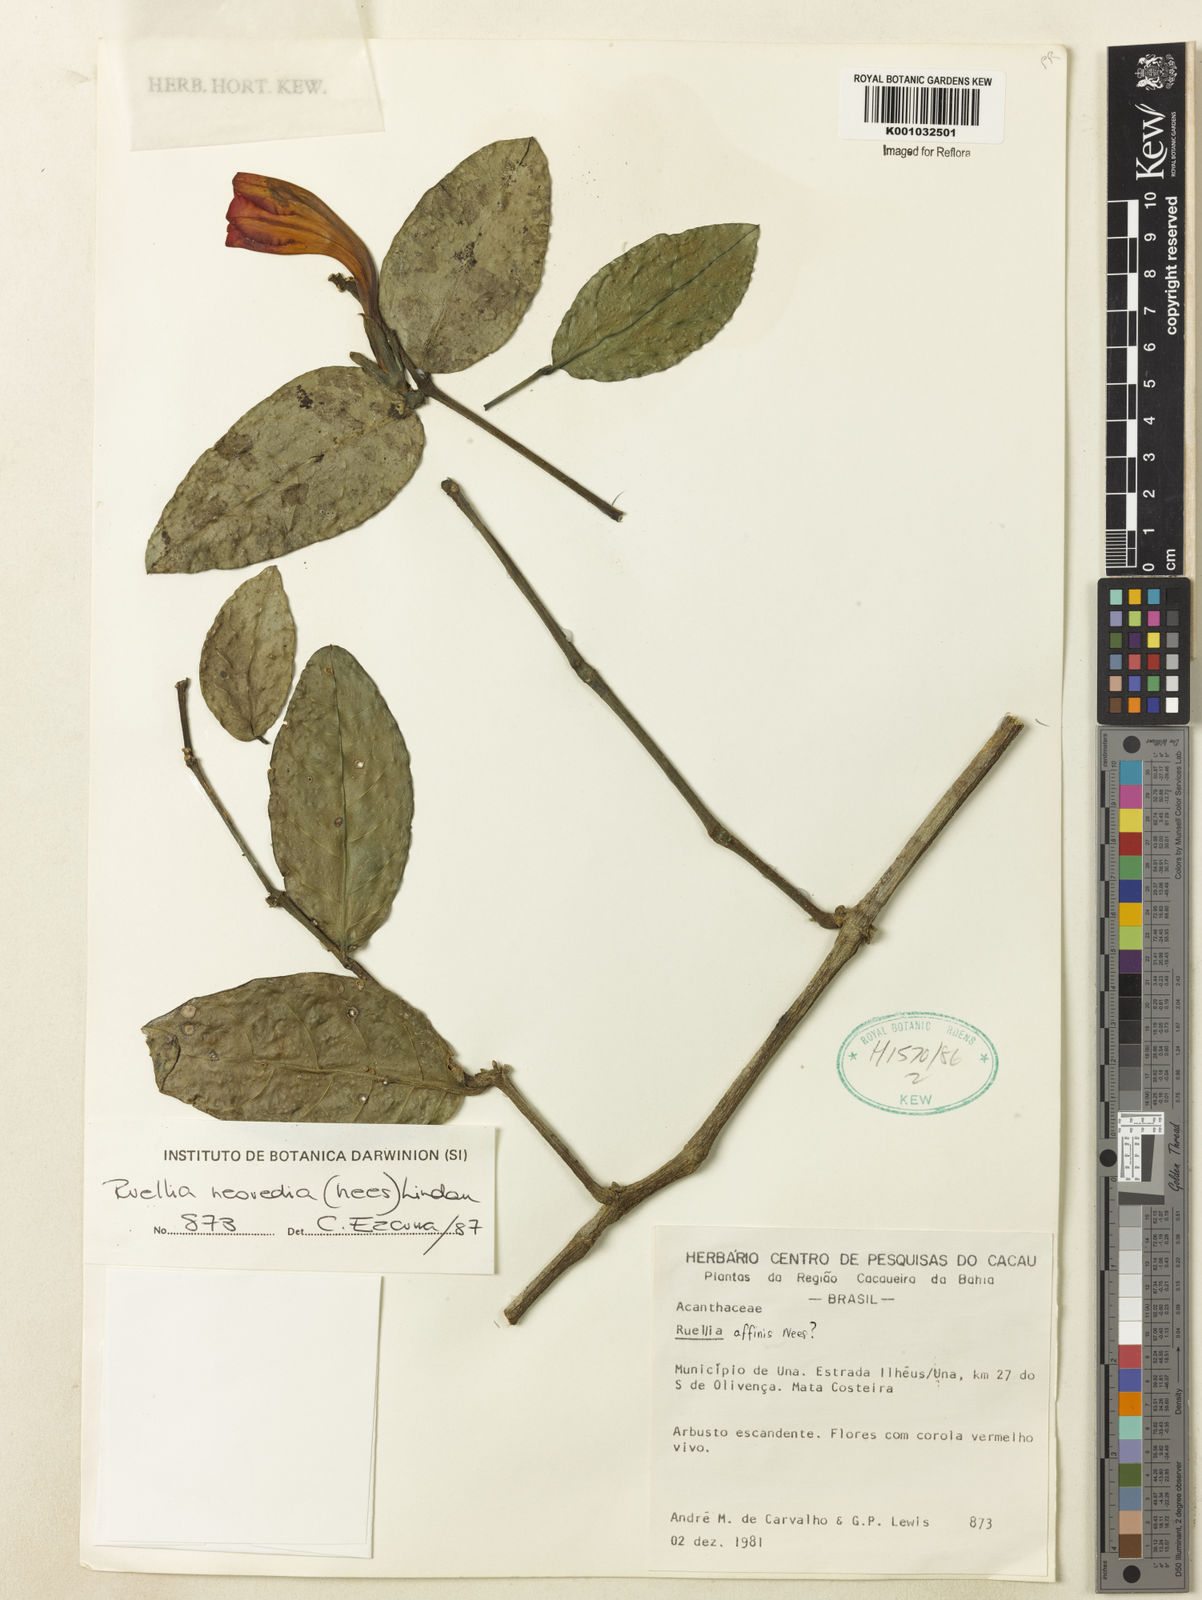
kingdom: Plantae
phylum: Tracheophyta
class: Magnoliopsida
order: Lamiales
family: Acanthaceae
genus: Ruellia
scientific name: Ruellia neowedia
